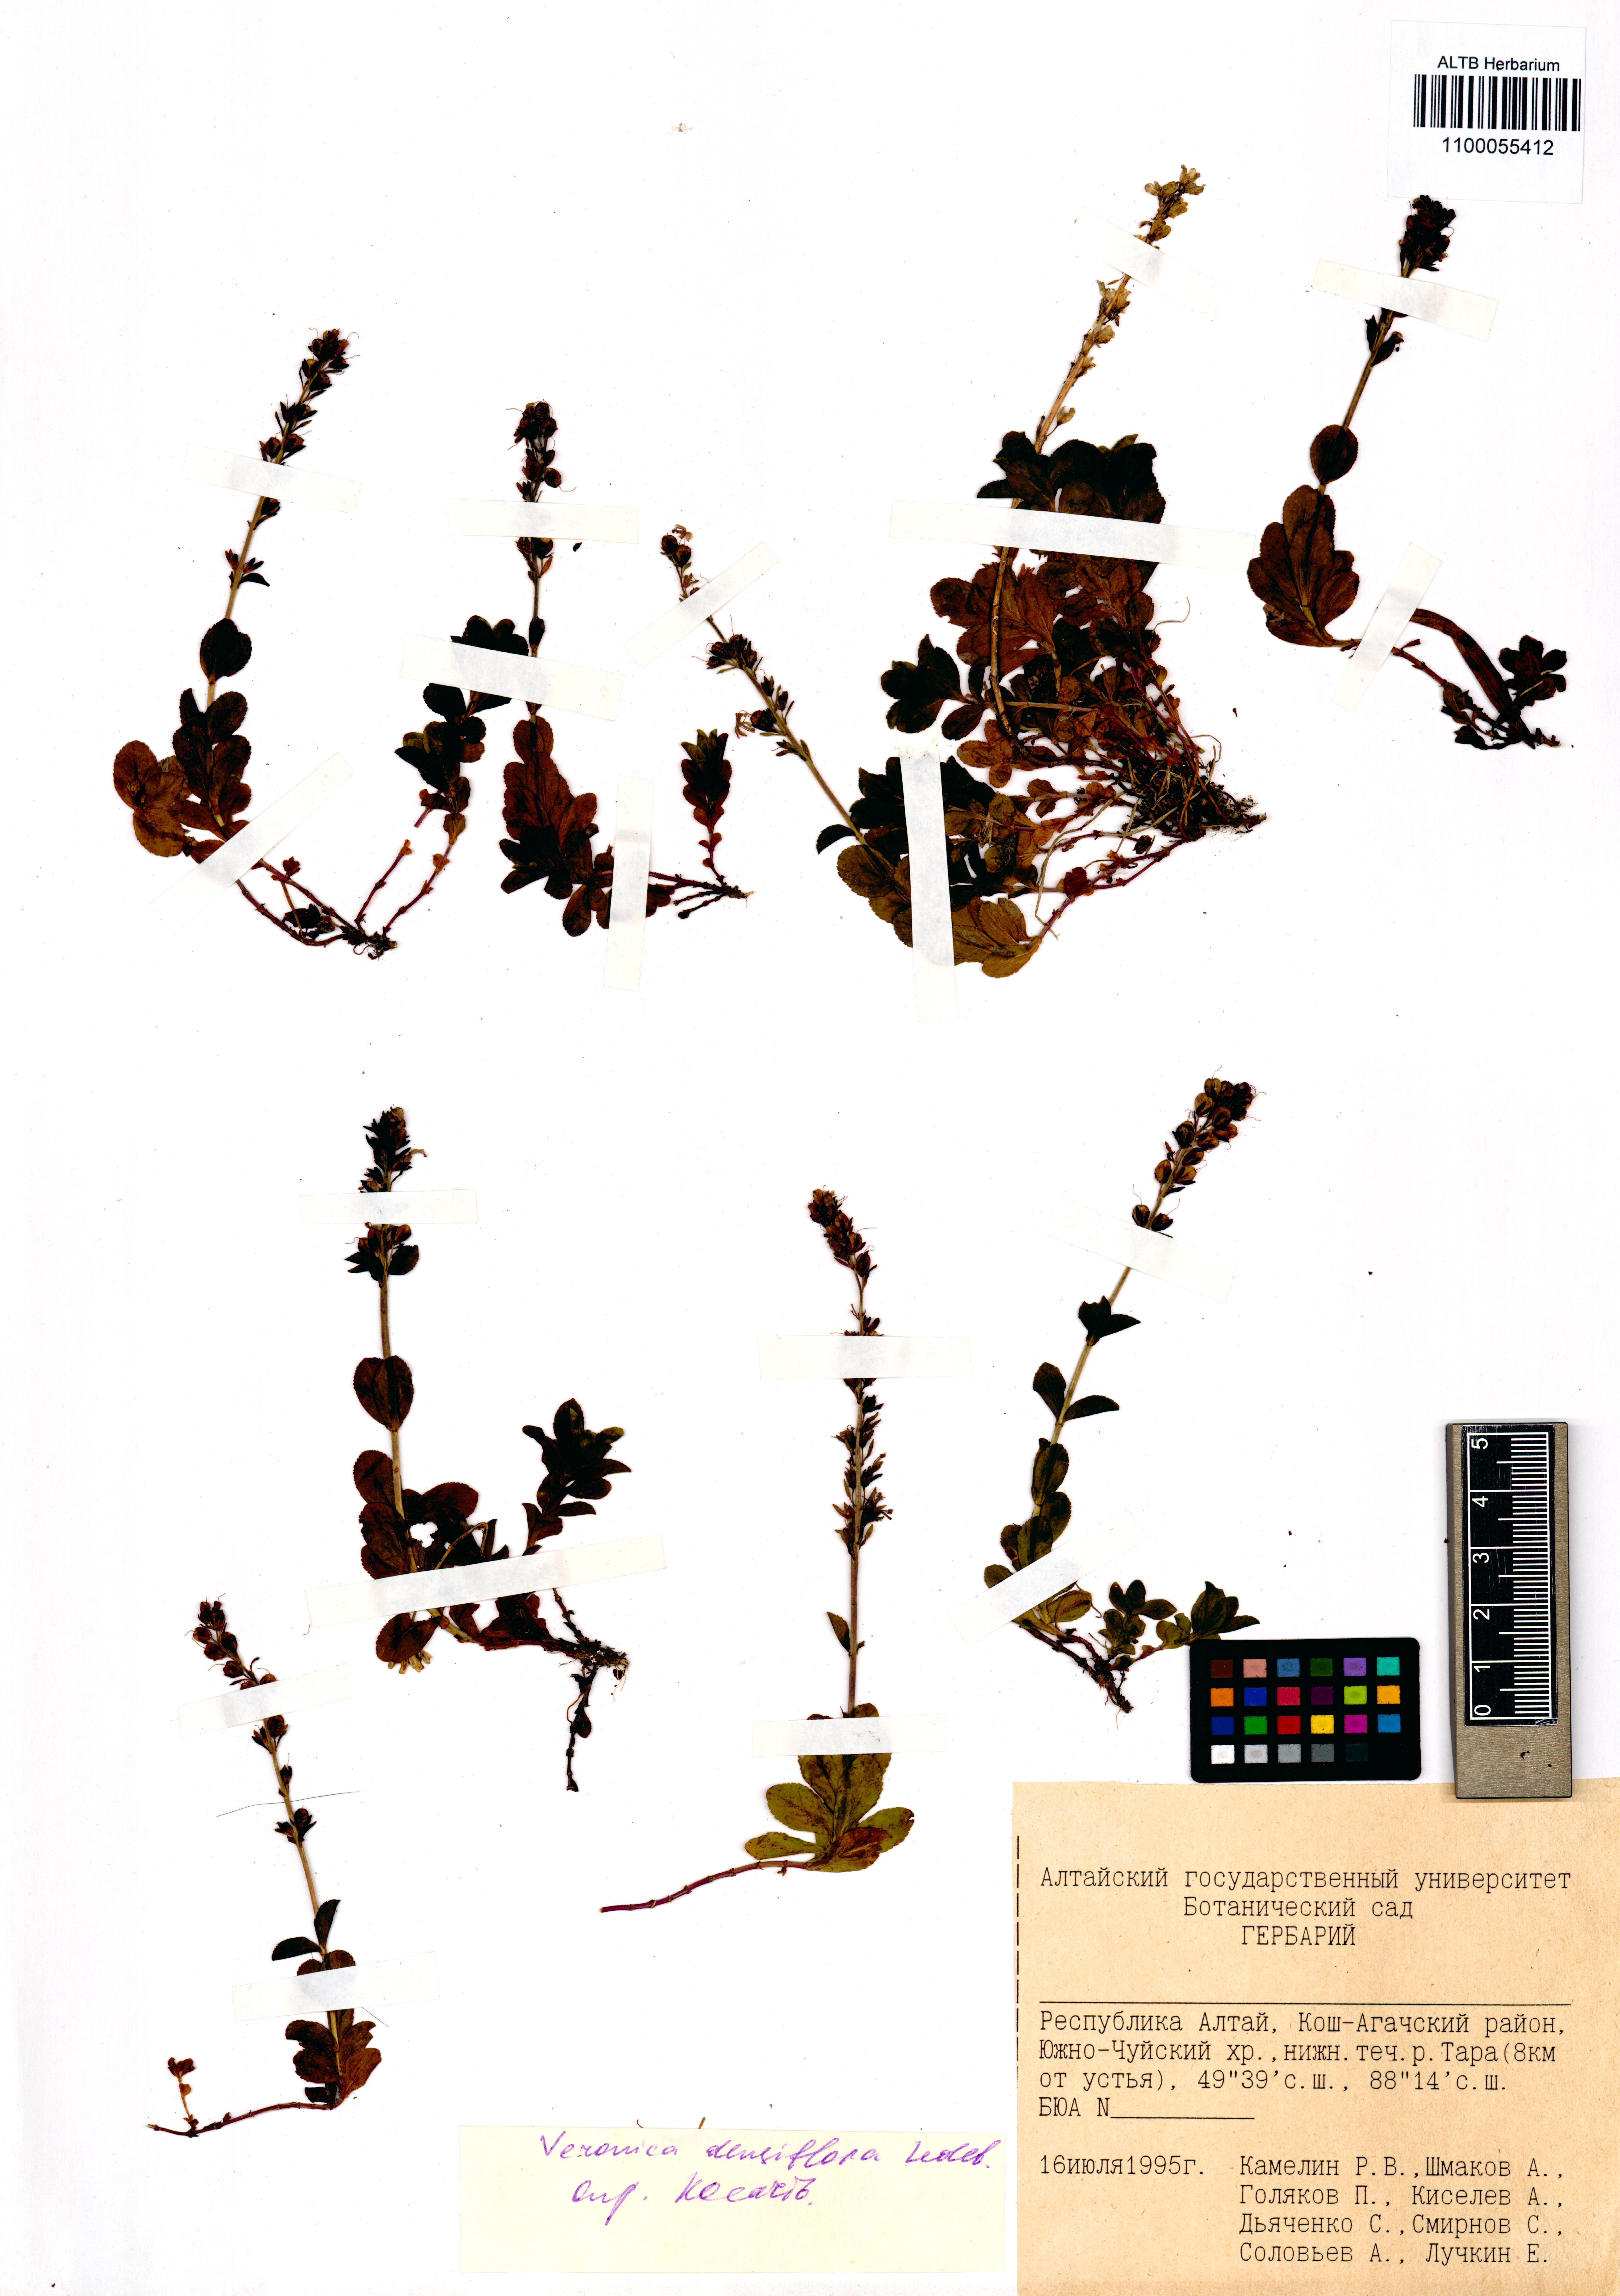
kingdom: Plantae
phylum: Tracheophyta
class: Magnoliopsida
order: Lamiales
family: Plantaginaceae
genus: Veronica
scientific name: Veronica densiflora
